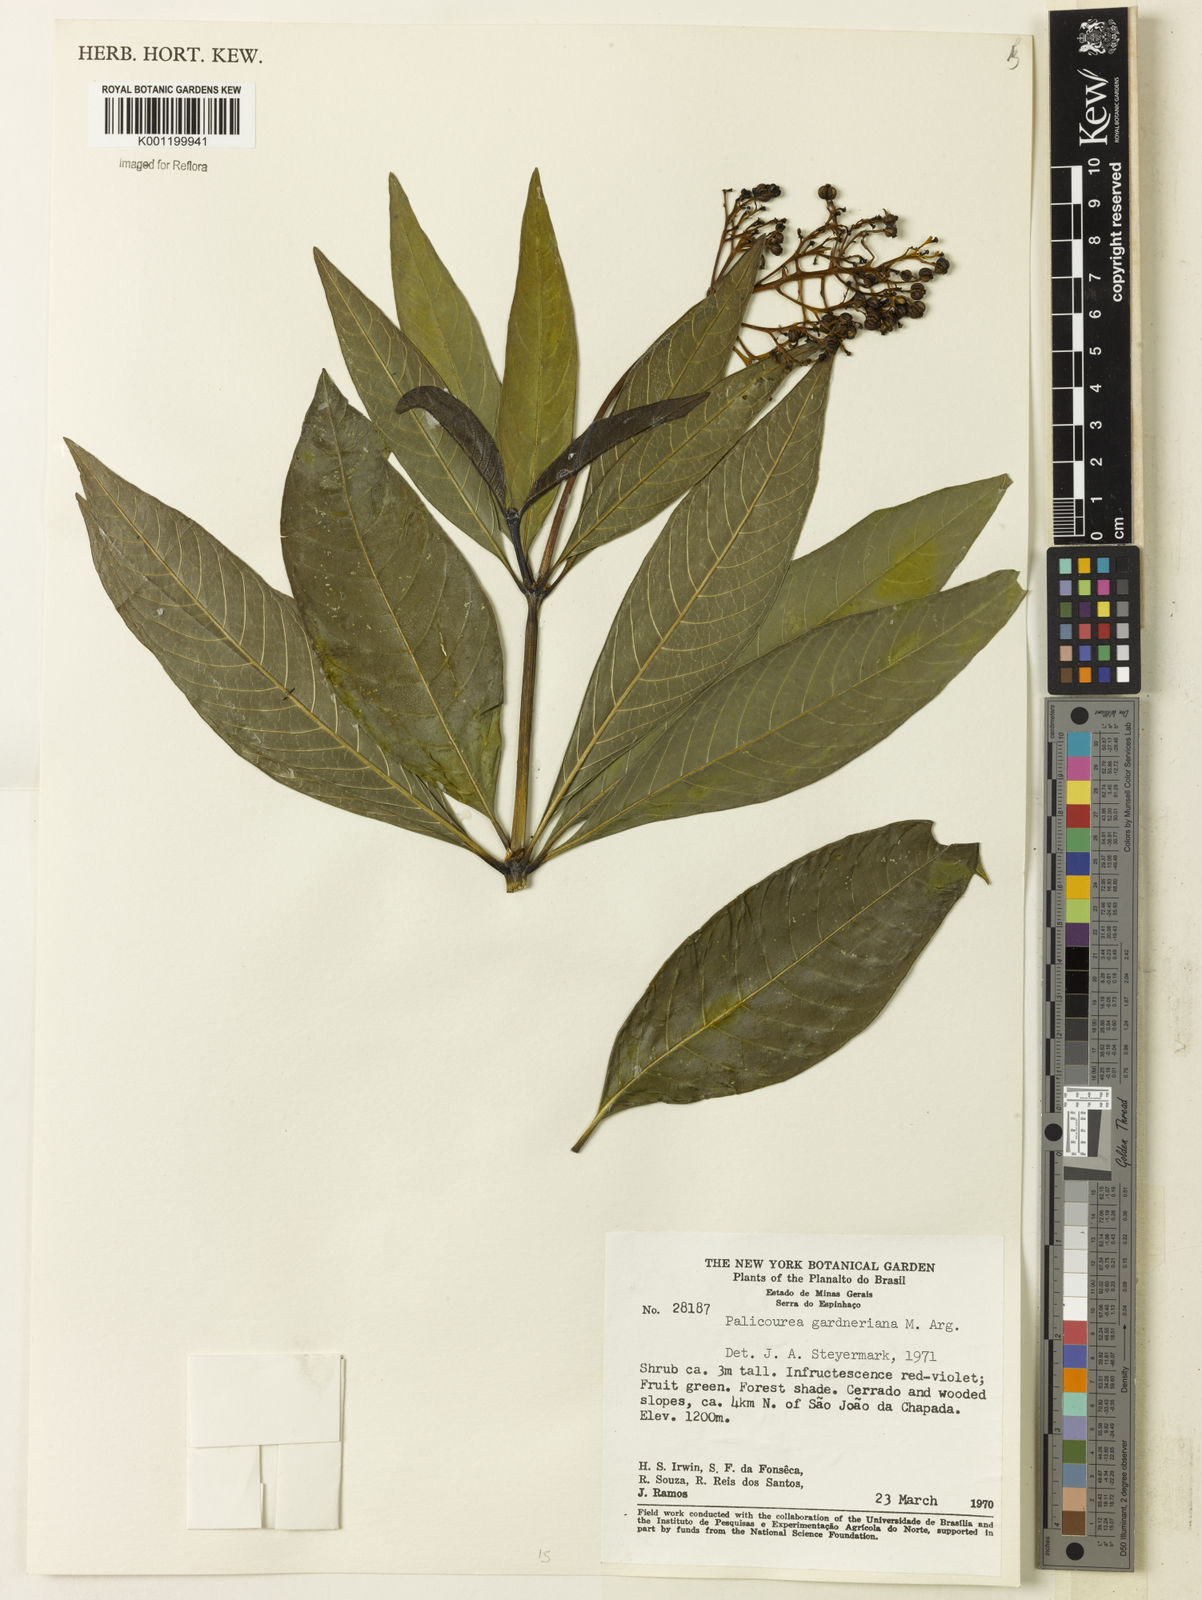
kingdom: Plantae
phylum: Tracheophyta
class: Magnoliopsida
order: Gentianales
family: Rubiaceae
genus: Palicourea
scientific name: Palicourea
